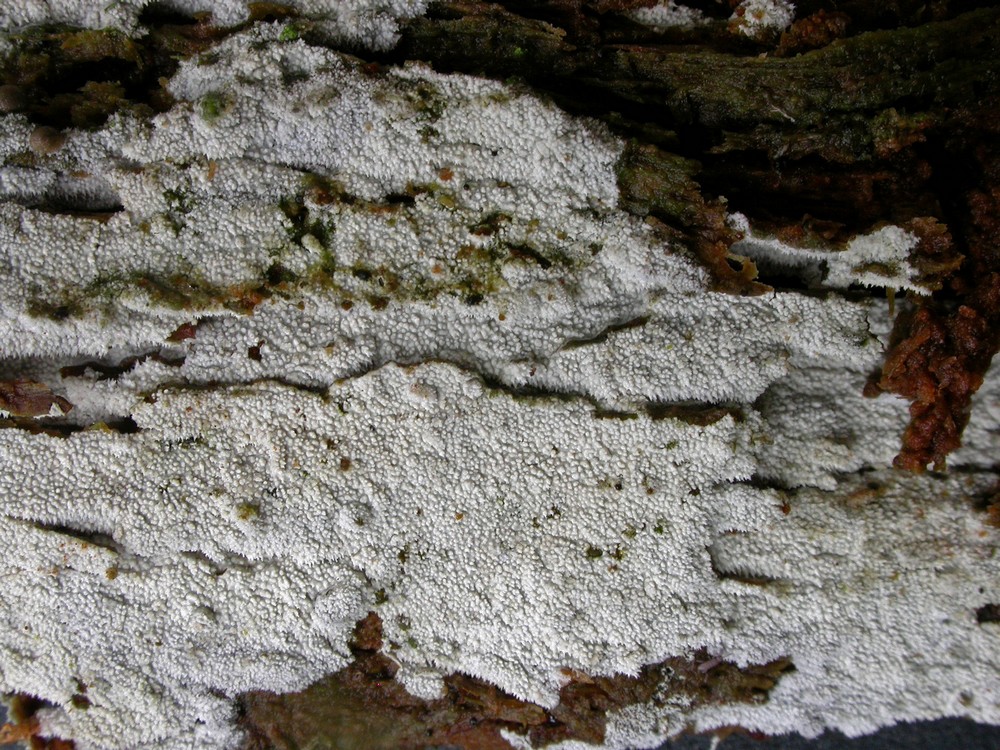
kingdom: Fungi
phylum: Basidiomycota
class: Agaricomycetes
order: Hymenochaetales
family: Schizoporaceae
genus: Xylodon
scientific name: Xylodon nesporii
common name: fintandet tandsvamp
